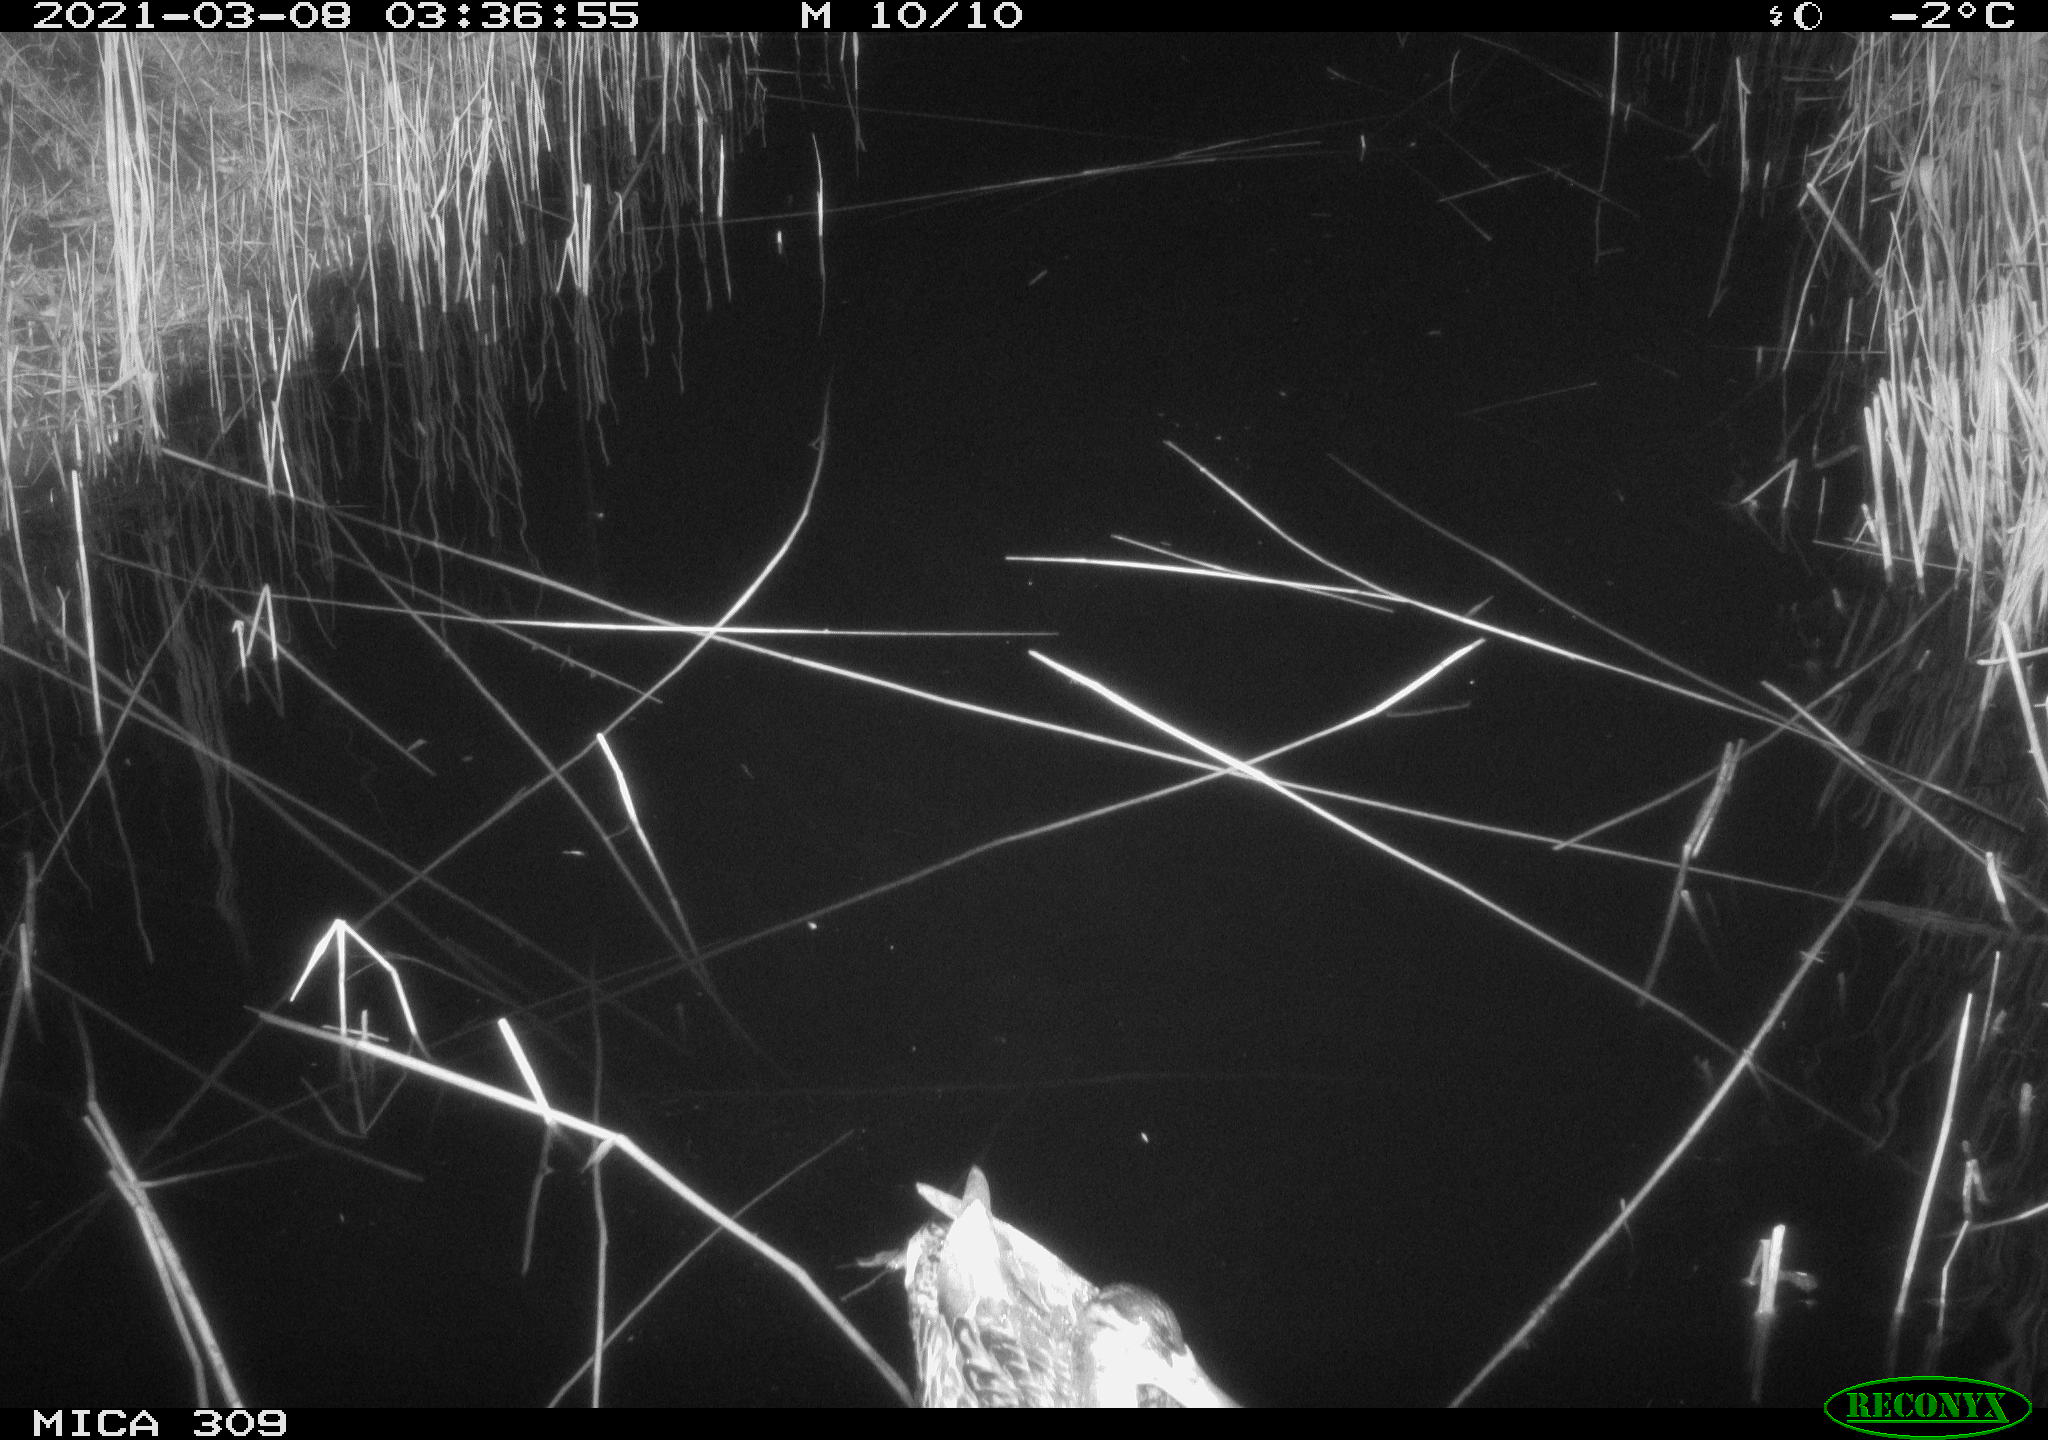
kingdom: Animalia
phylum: Chordata
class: Aves
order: Anseriformes
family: Anatidae
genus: Anas
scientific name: Anas platyrhynchos
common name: Mallard
